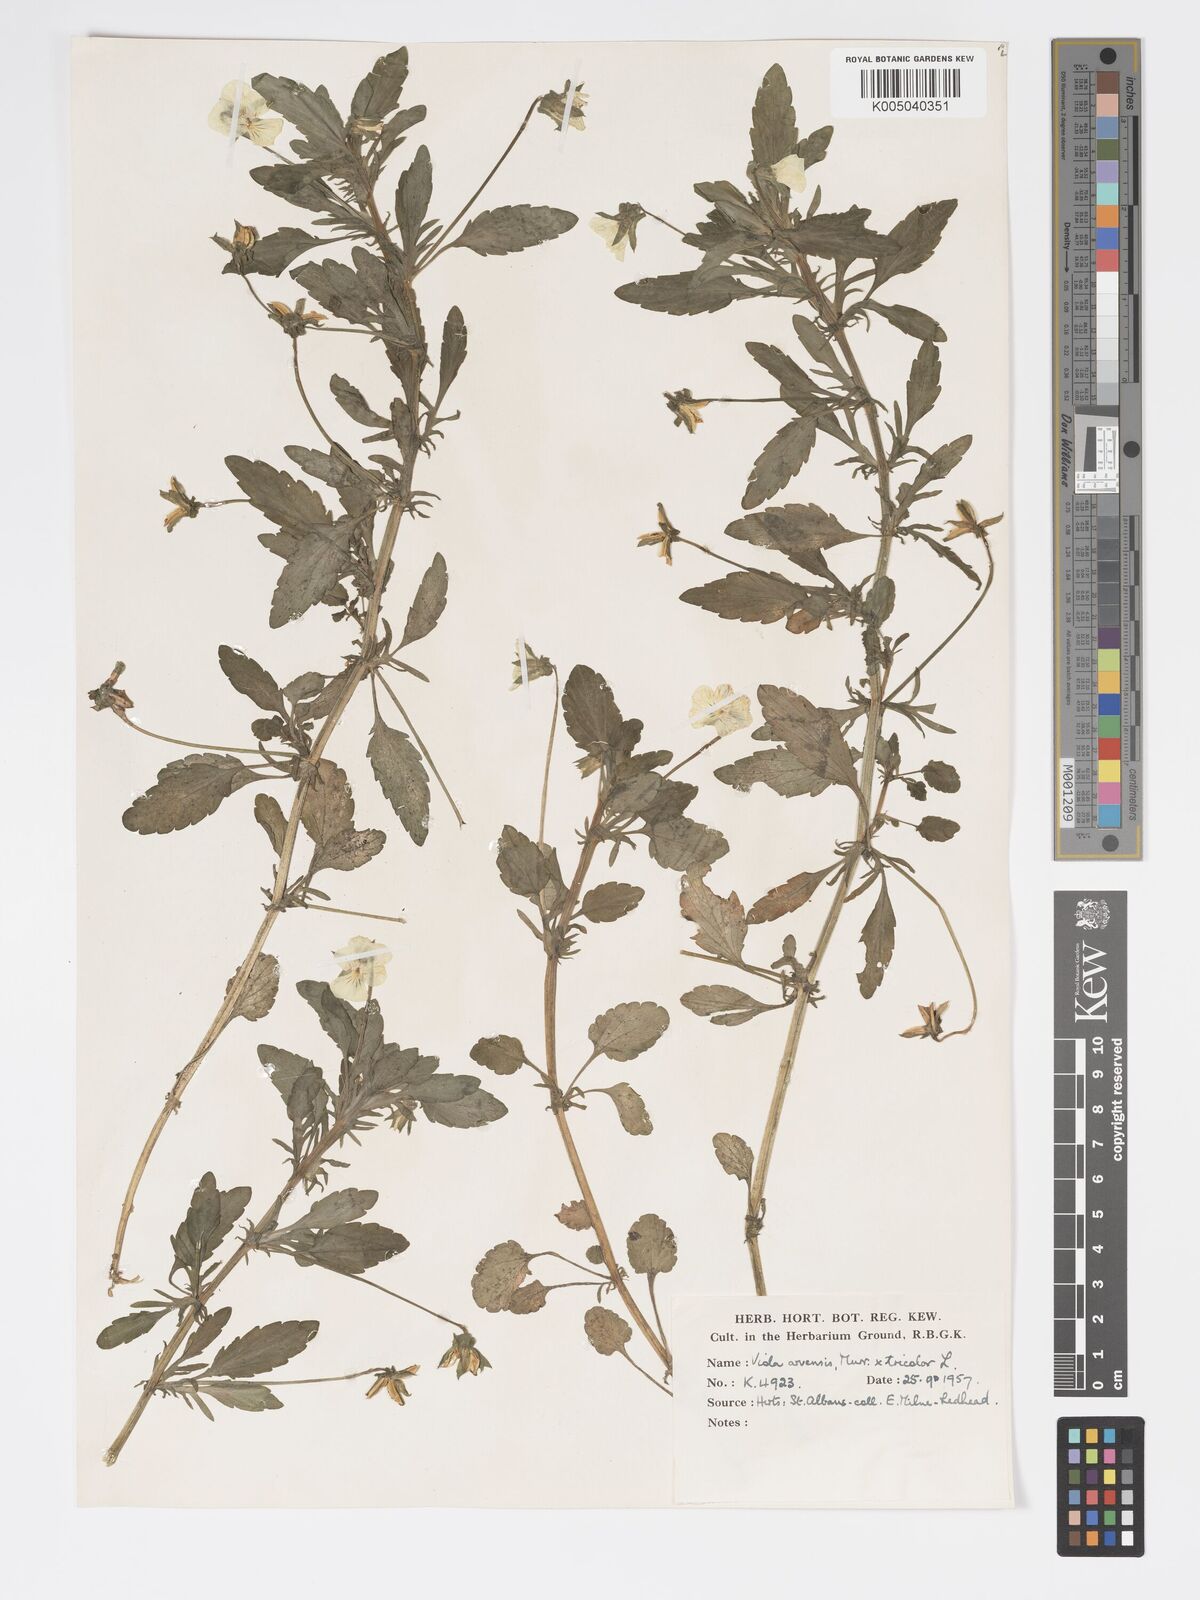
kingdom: Plantae
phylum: Tracheophyta
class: Magnoliopsida
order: Malpighiales
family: Violaceae
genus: Viola
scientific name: Viola arvensis
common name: Field pansy
